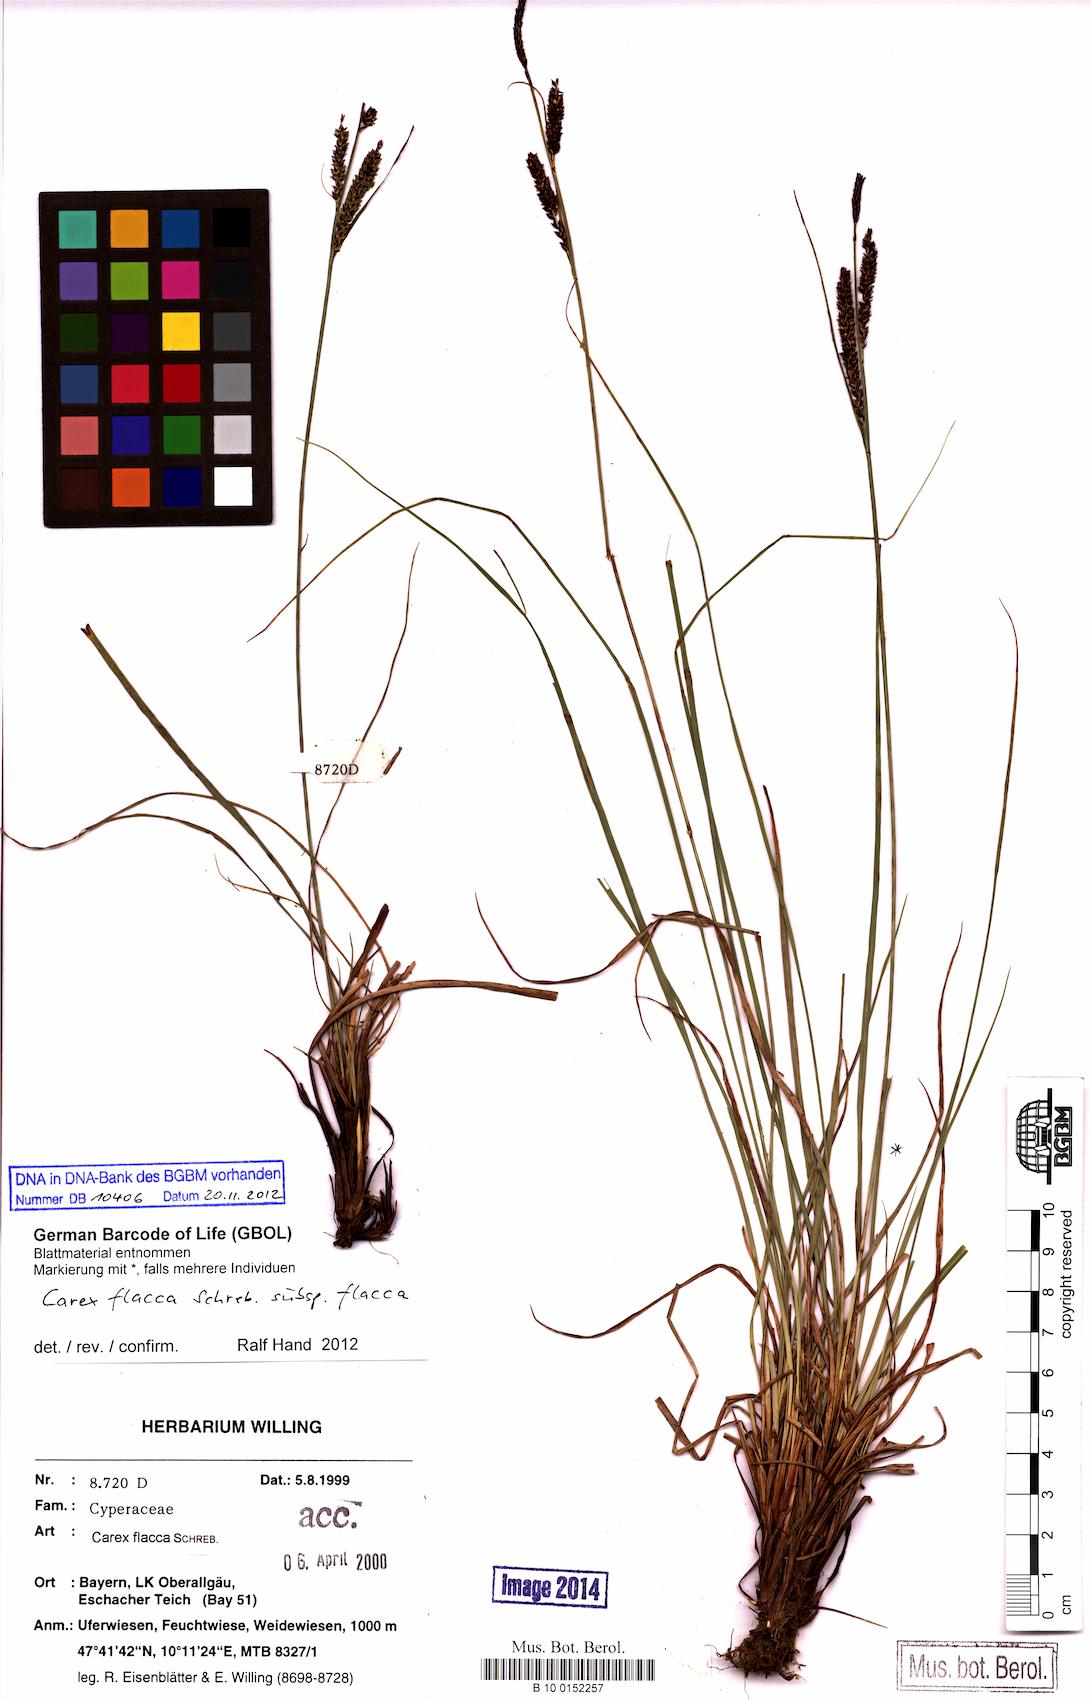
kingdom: Plantae
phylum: Tracheophyta
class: Liliopsida
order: Poales
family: Cyperaceae
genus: Carex
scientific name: Carex flacca
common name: Glaucous sedge
